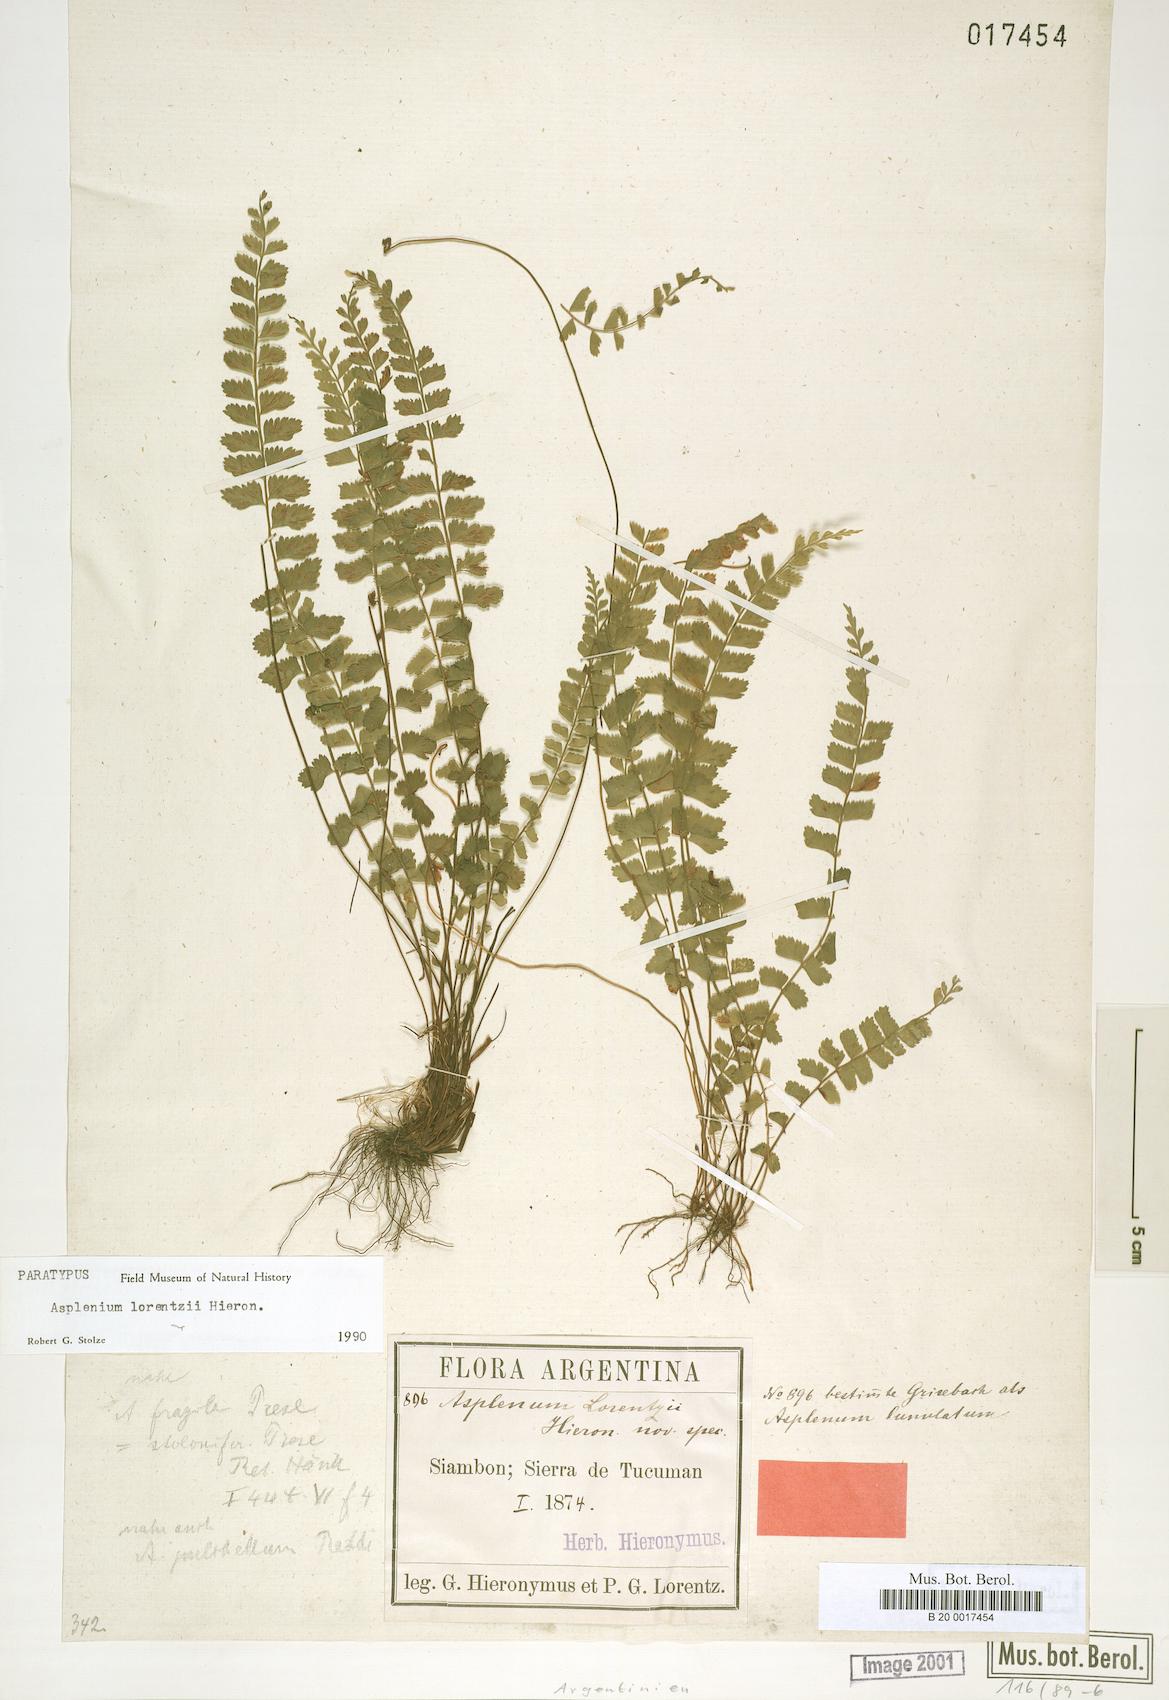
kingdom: Plantae
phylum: Tracheophyta
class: Polypodiopsida
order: Polypodiales
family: Thelypteridaceae
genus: Amauropelta
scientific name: Amauropelta argentina
